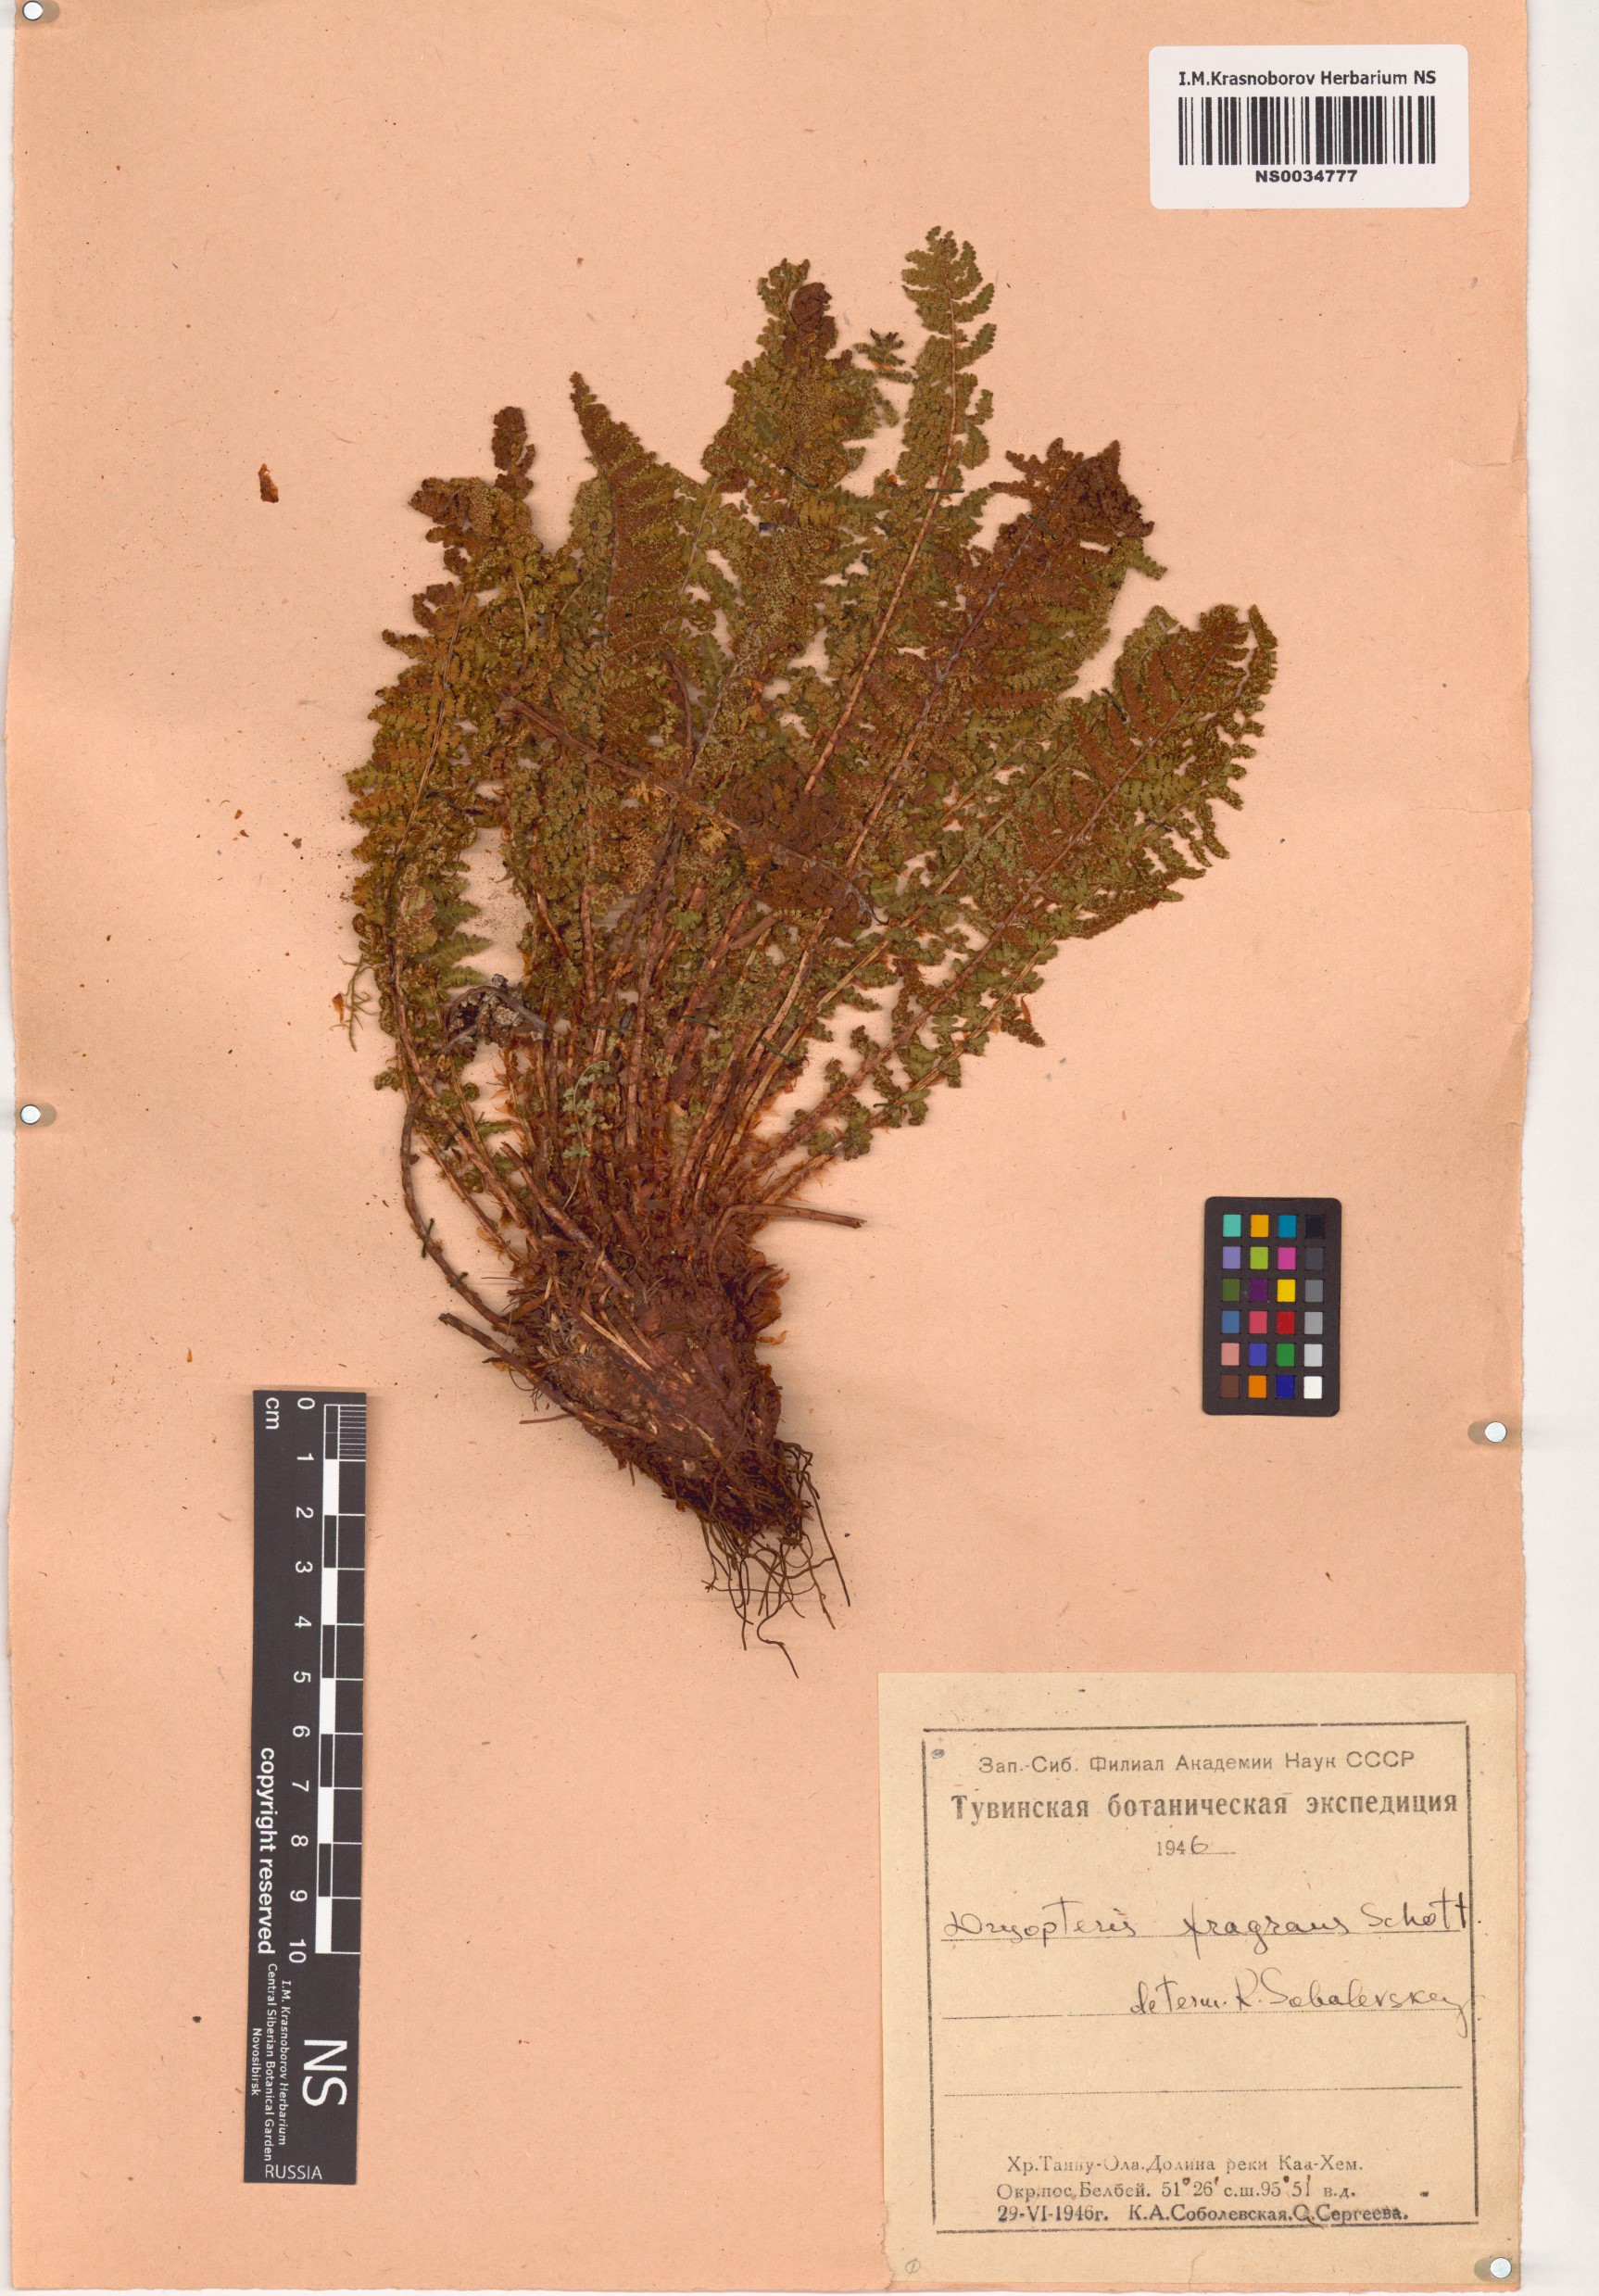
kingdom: Plantae
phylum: Tracheophyta
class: Polypodiopsida
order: Polypodiales
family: Dryopteridaceae
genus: Dryopteris
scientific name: Dryopteris fragrans
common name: Fragrant wood fern
